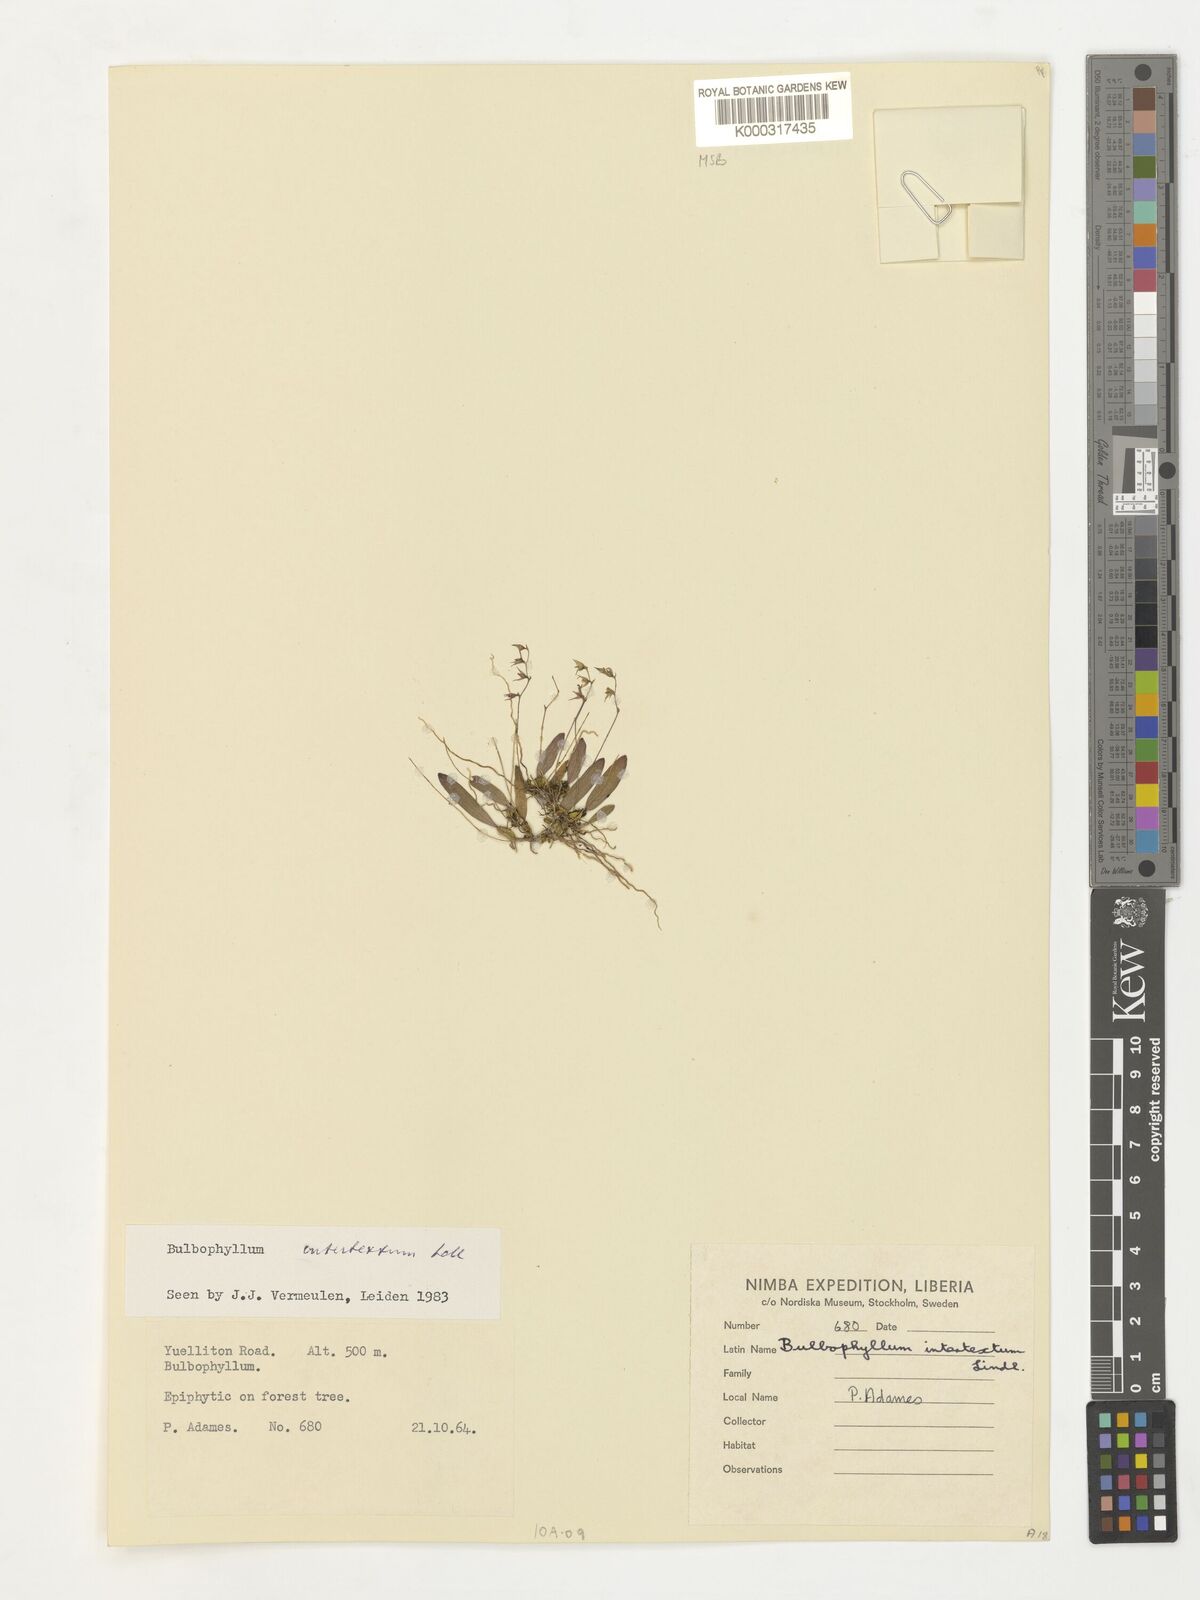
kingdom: Plantae
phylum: Tracheophyta
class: Liliopsida
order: Asparagales
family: Orchidaceae
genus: Bulbophyllum
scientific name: Bulbophyllum intertextum
